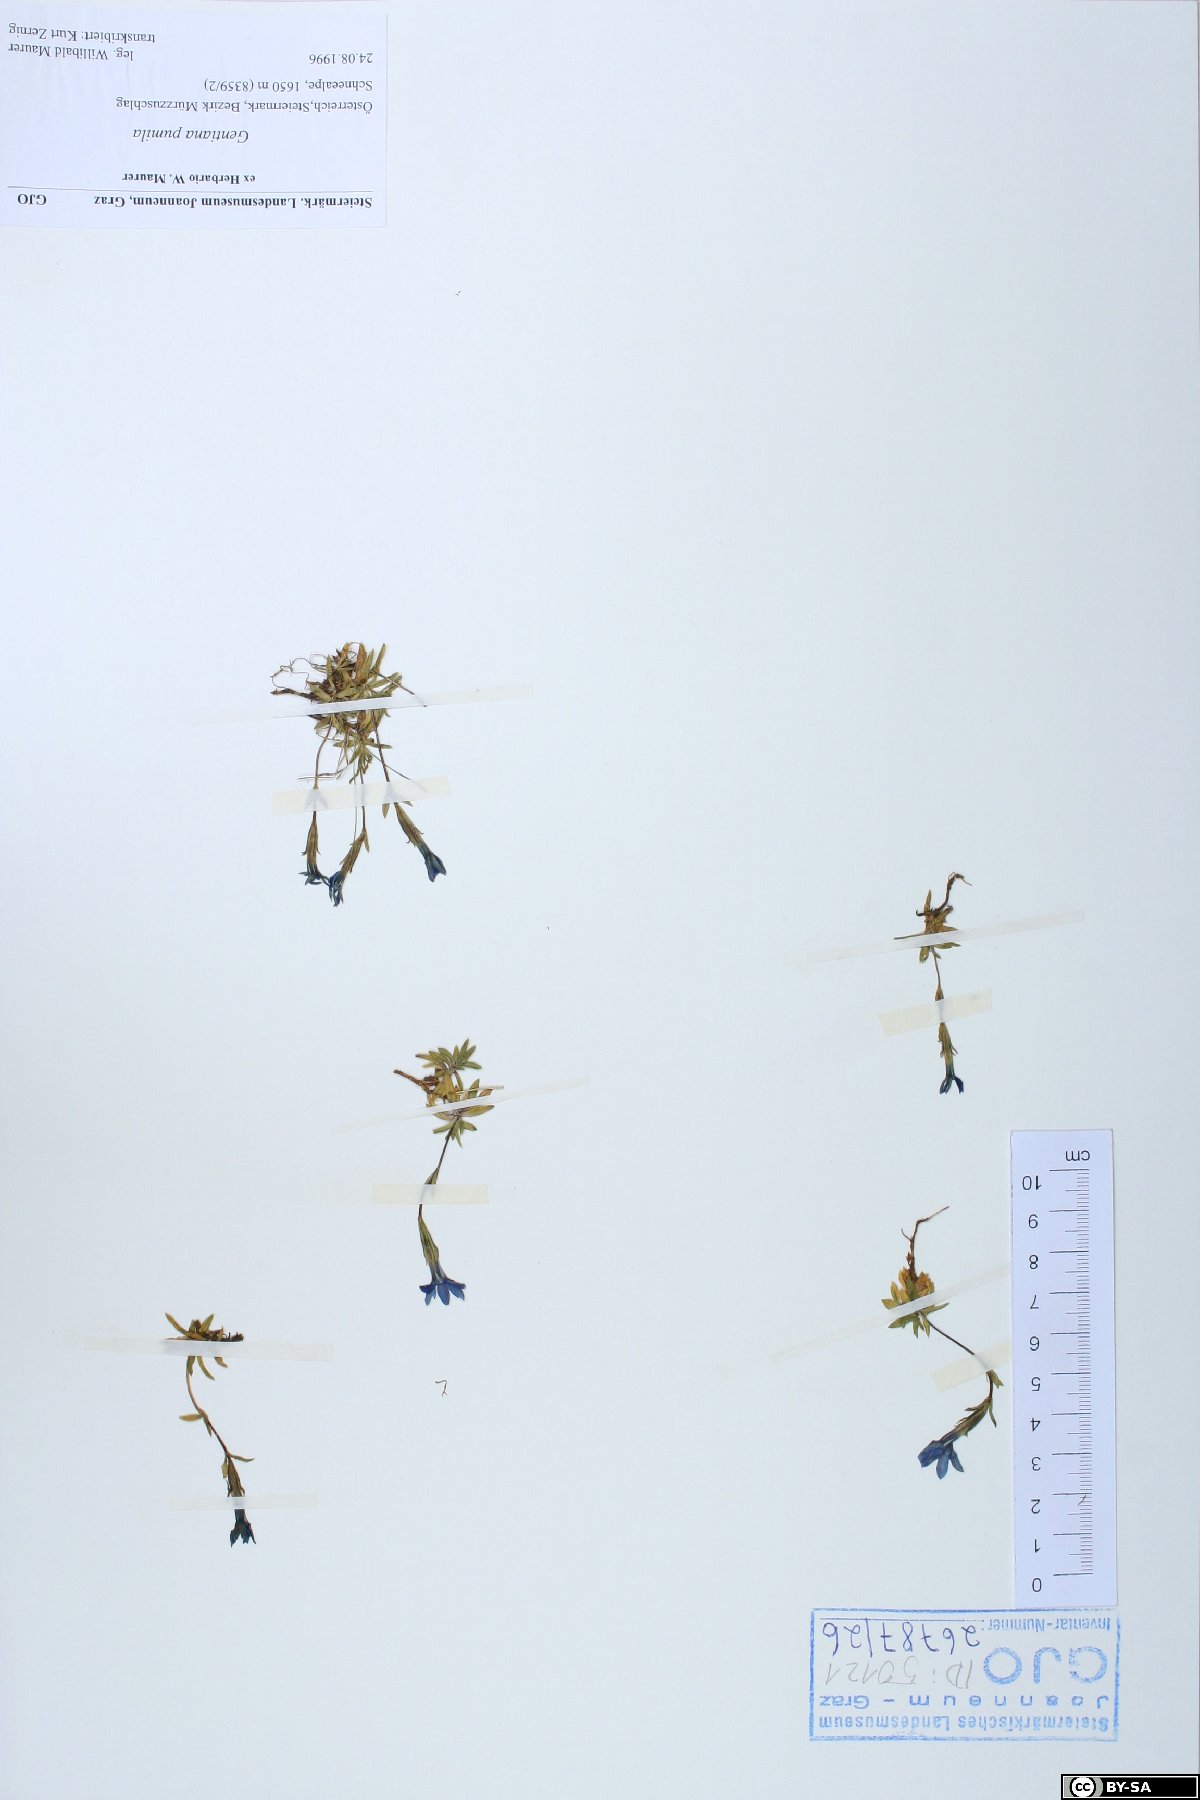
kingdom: Plantae
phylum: Tracheophyta
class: Magnoliopsida
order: Gentianales
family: Gentianaceae
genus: Gentiana
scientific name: Gentiana pumila
